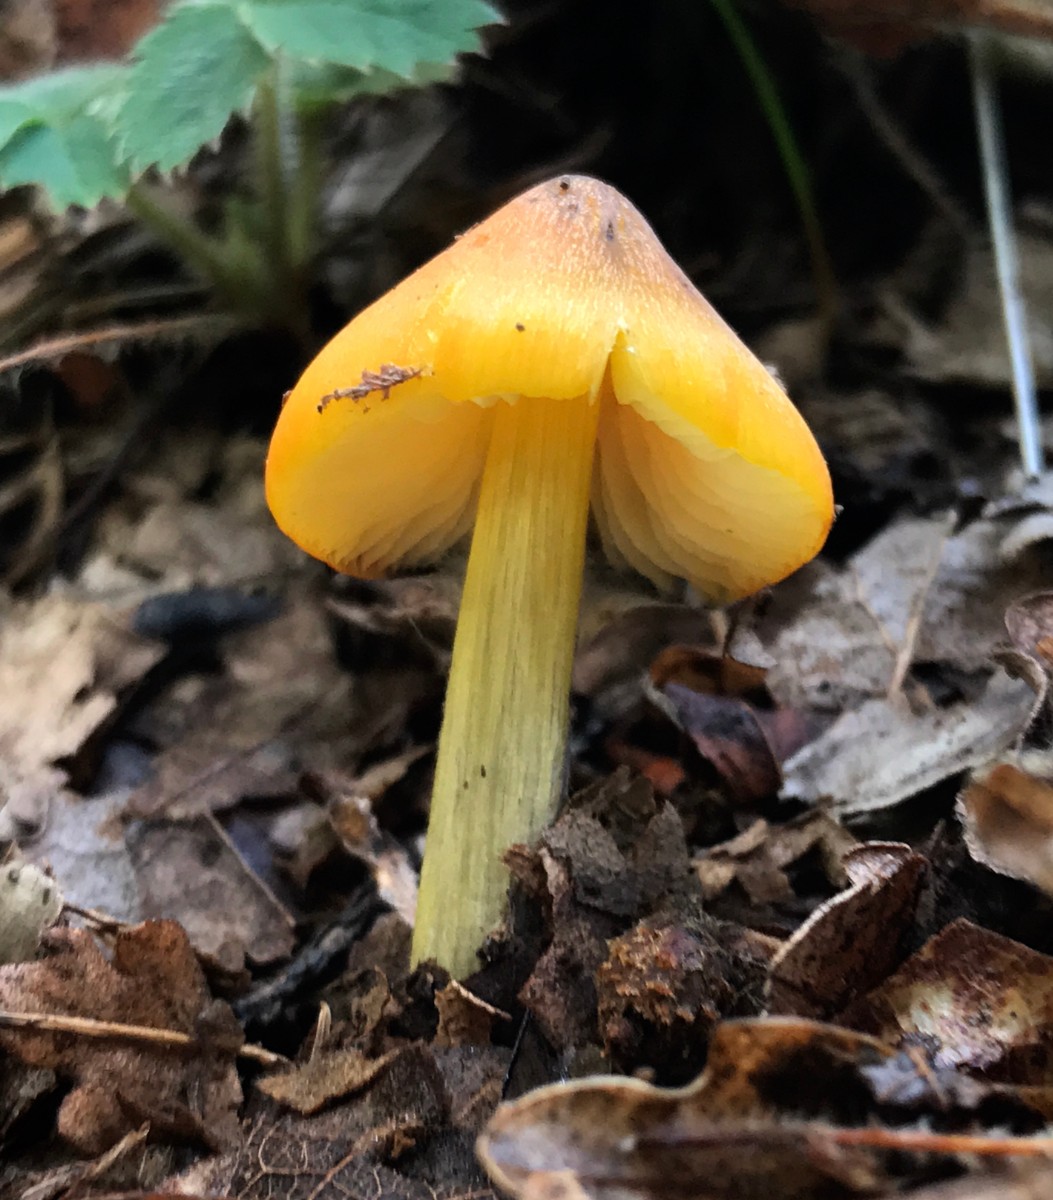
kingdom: Fungi
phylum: Basidiomycota
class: Agaricomycetes
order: Agaricales
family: Hygrophoraceae
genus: Hygrocybe
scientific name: Hygrocybe conica
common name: kegle-vokshat
